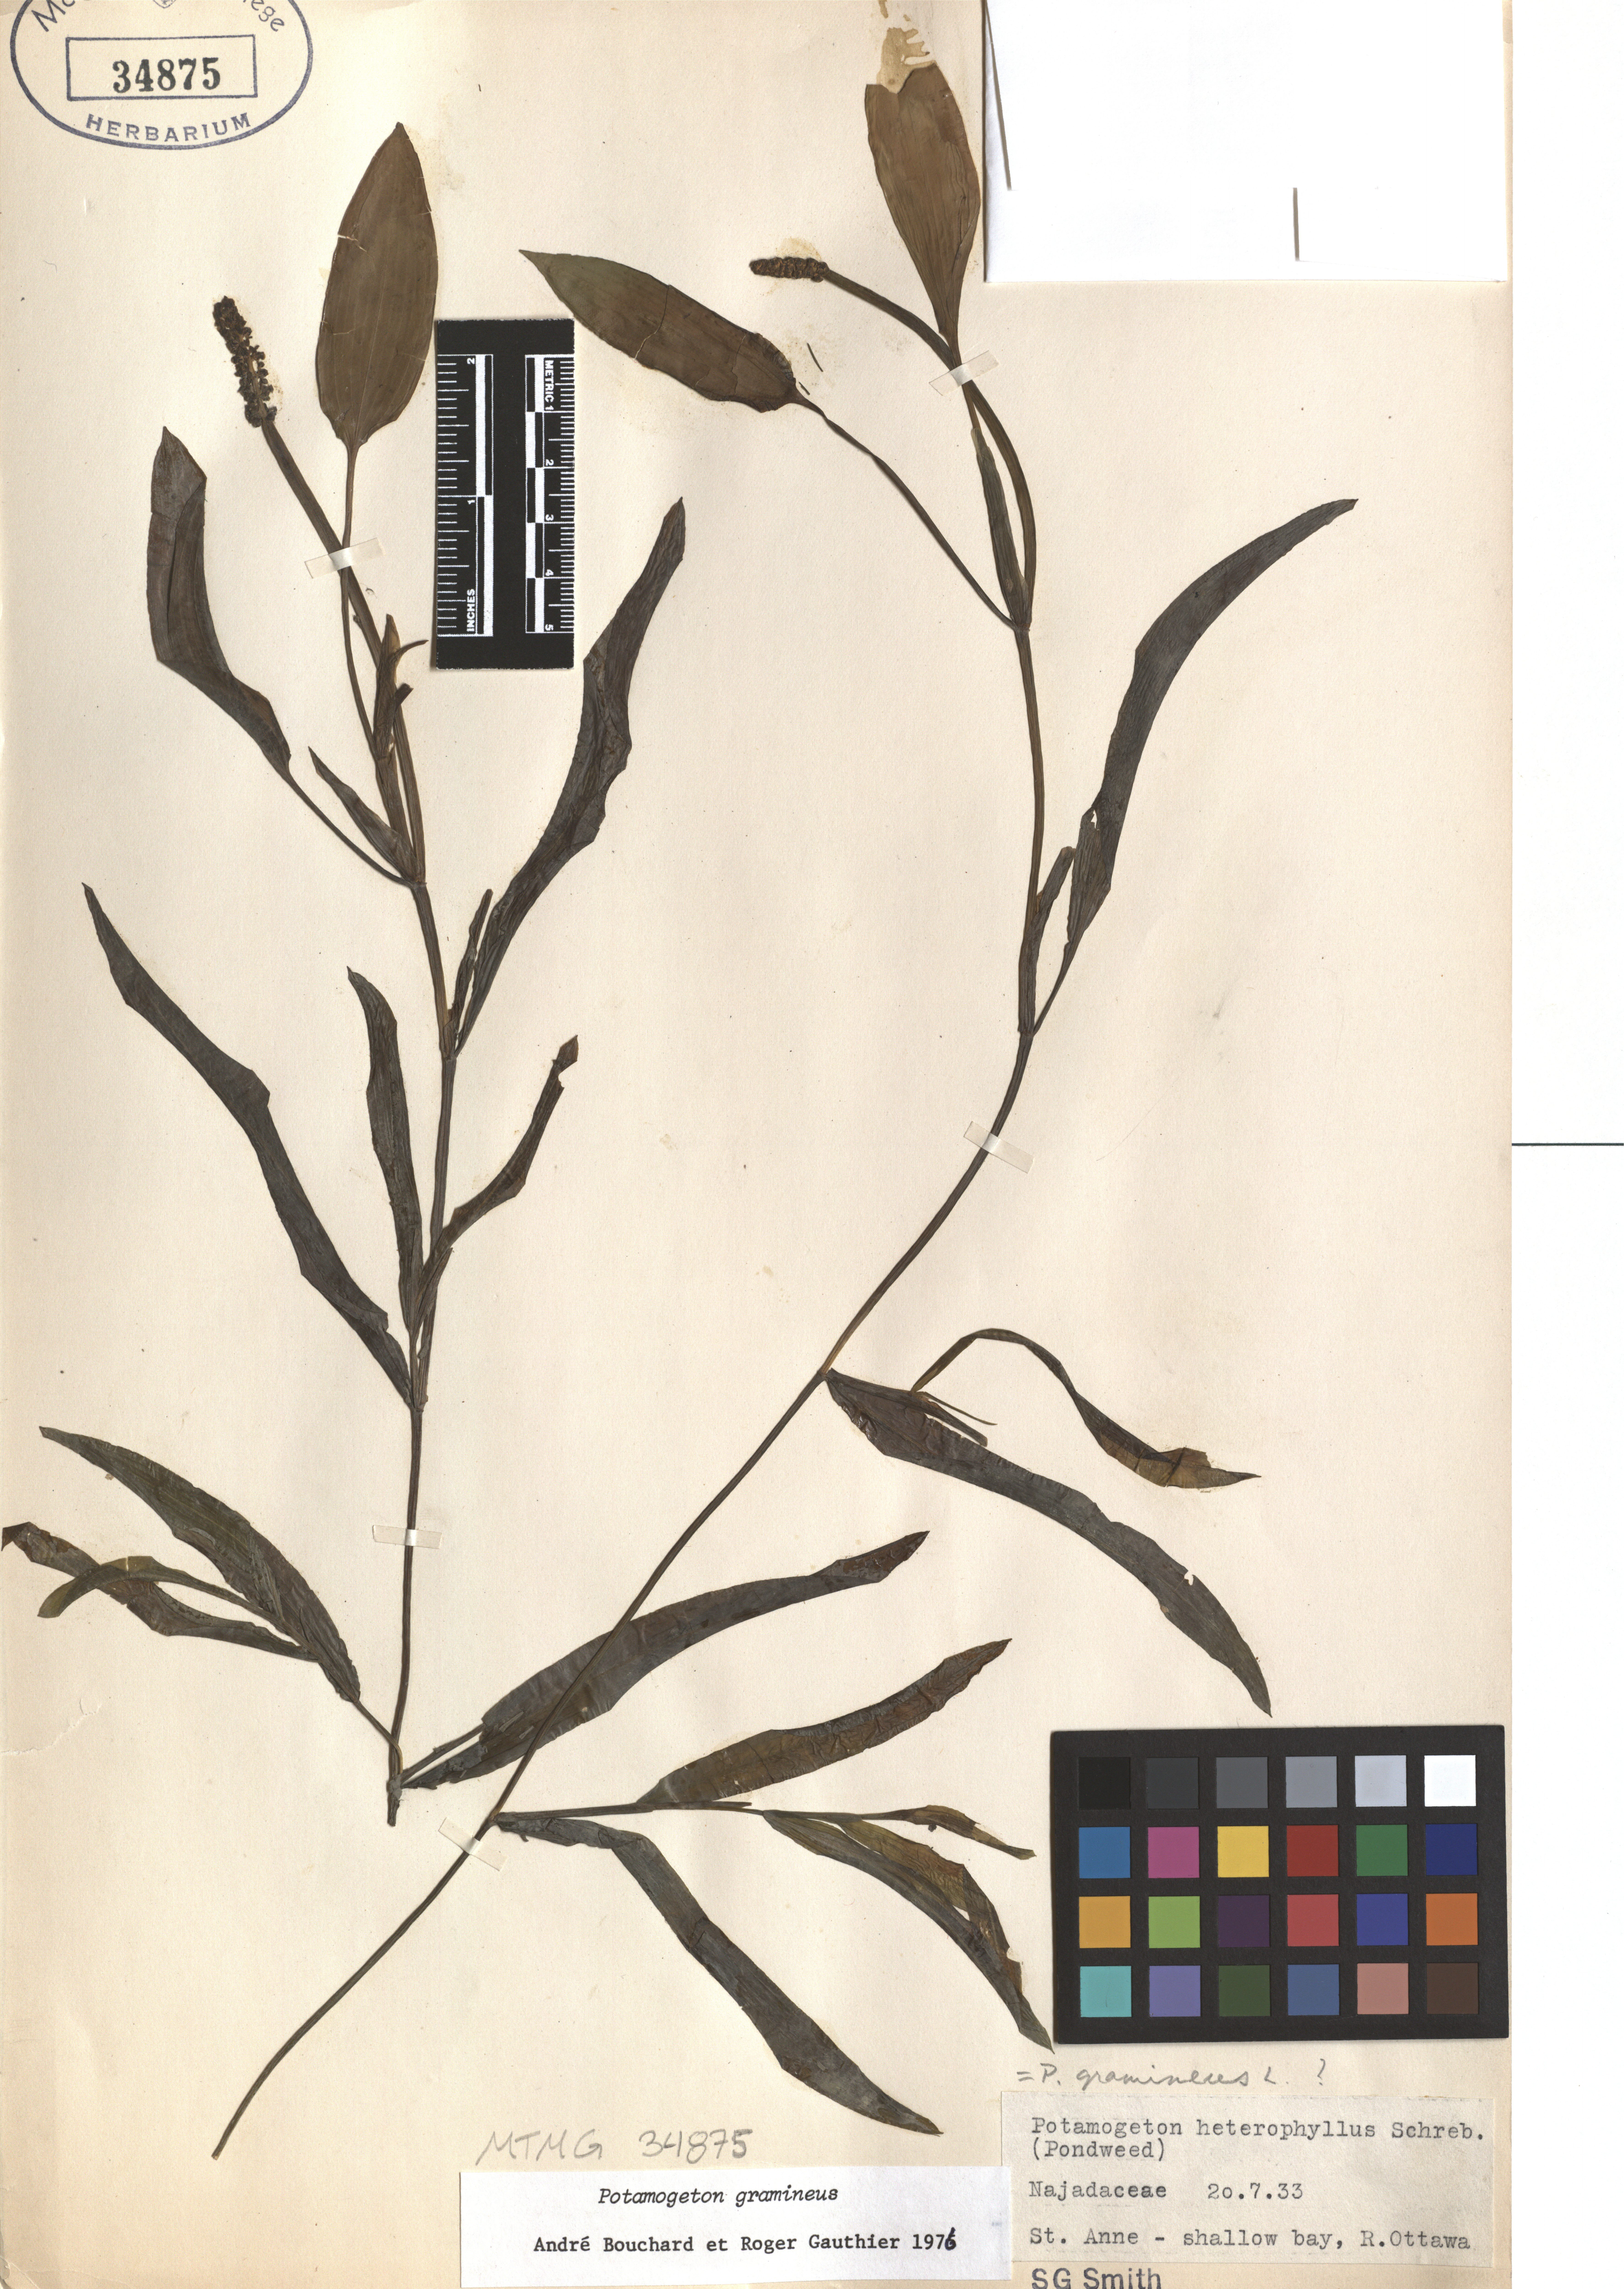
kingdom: Plantae
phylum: Tracheophyta
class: Liliopsida
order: Alismatales
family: Potamogetonaceae
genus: Potamogeton
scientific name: Potamogeton gramineus
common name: Various-leaved pondweed
